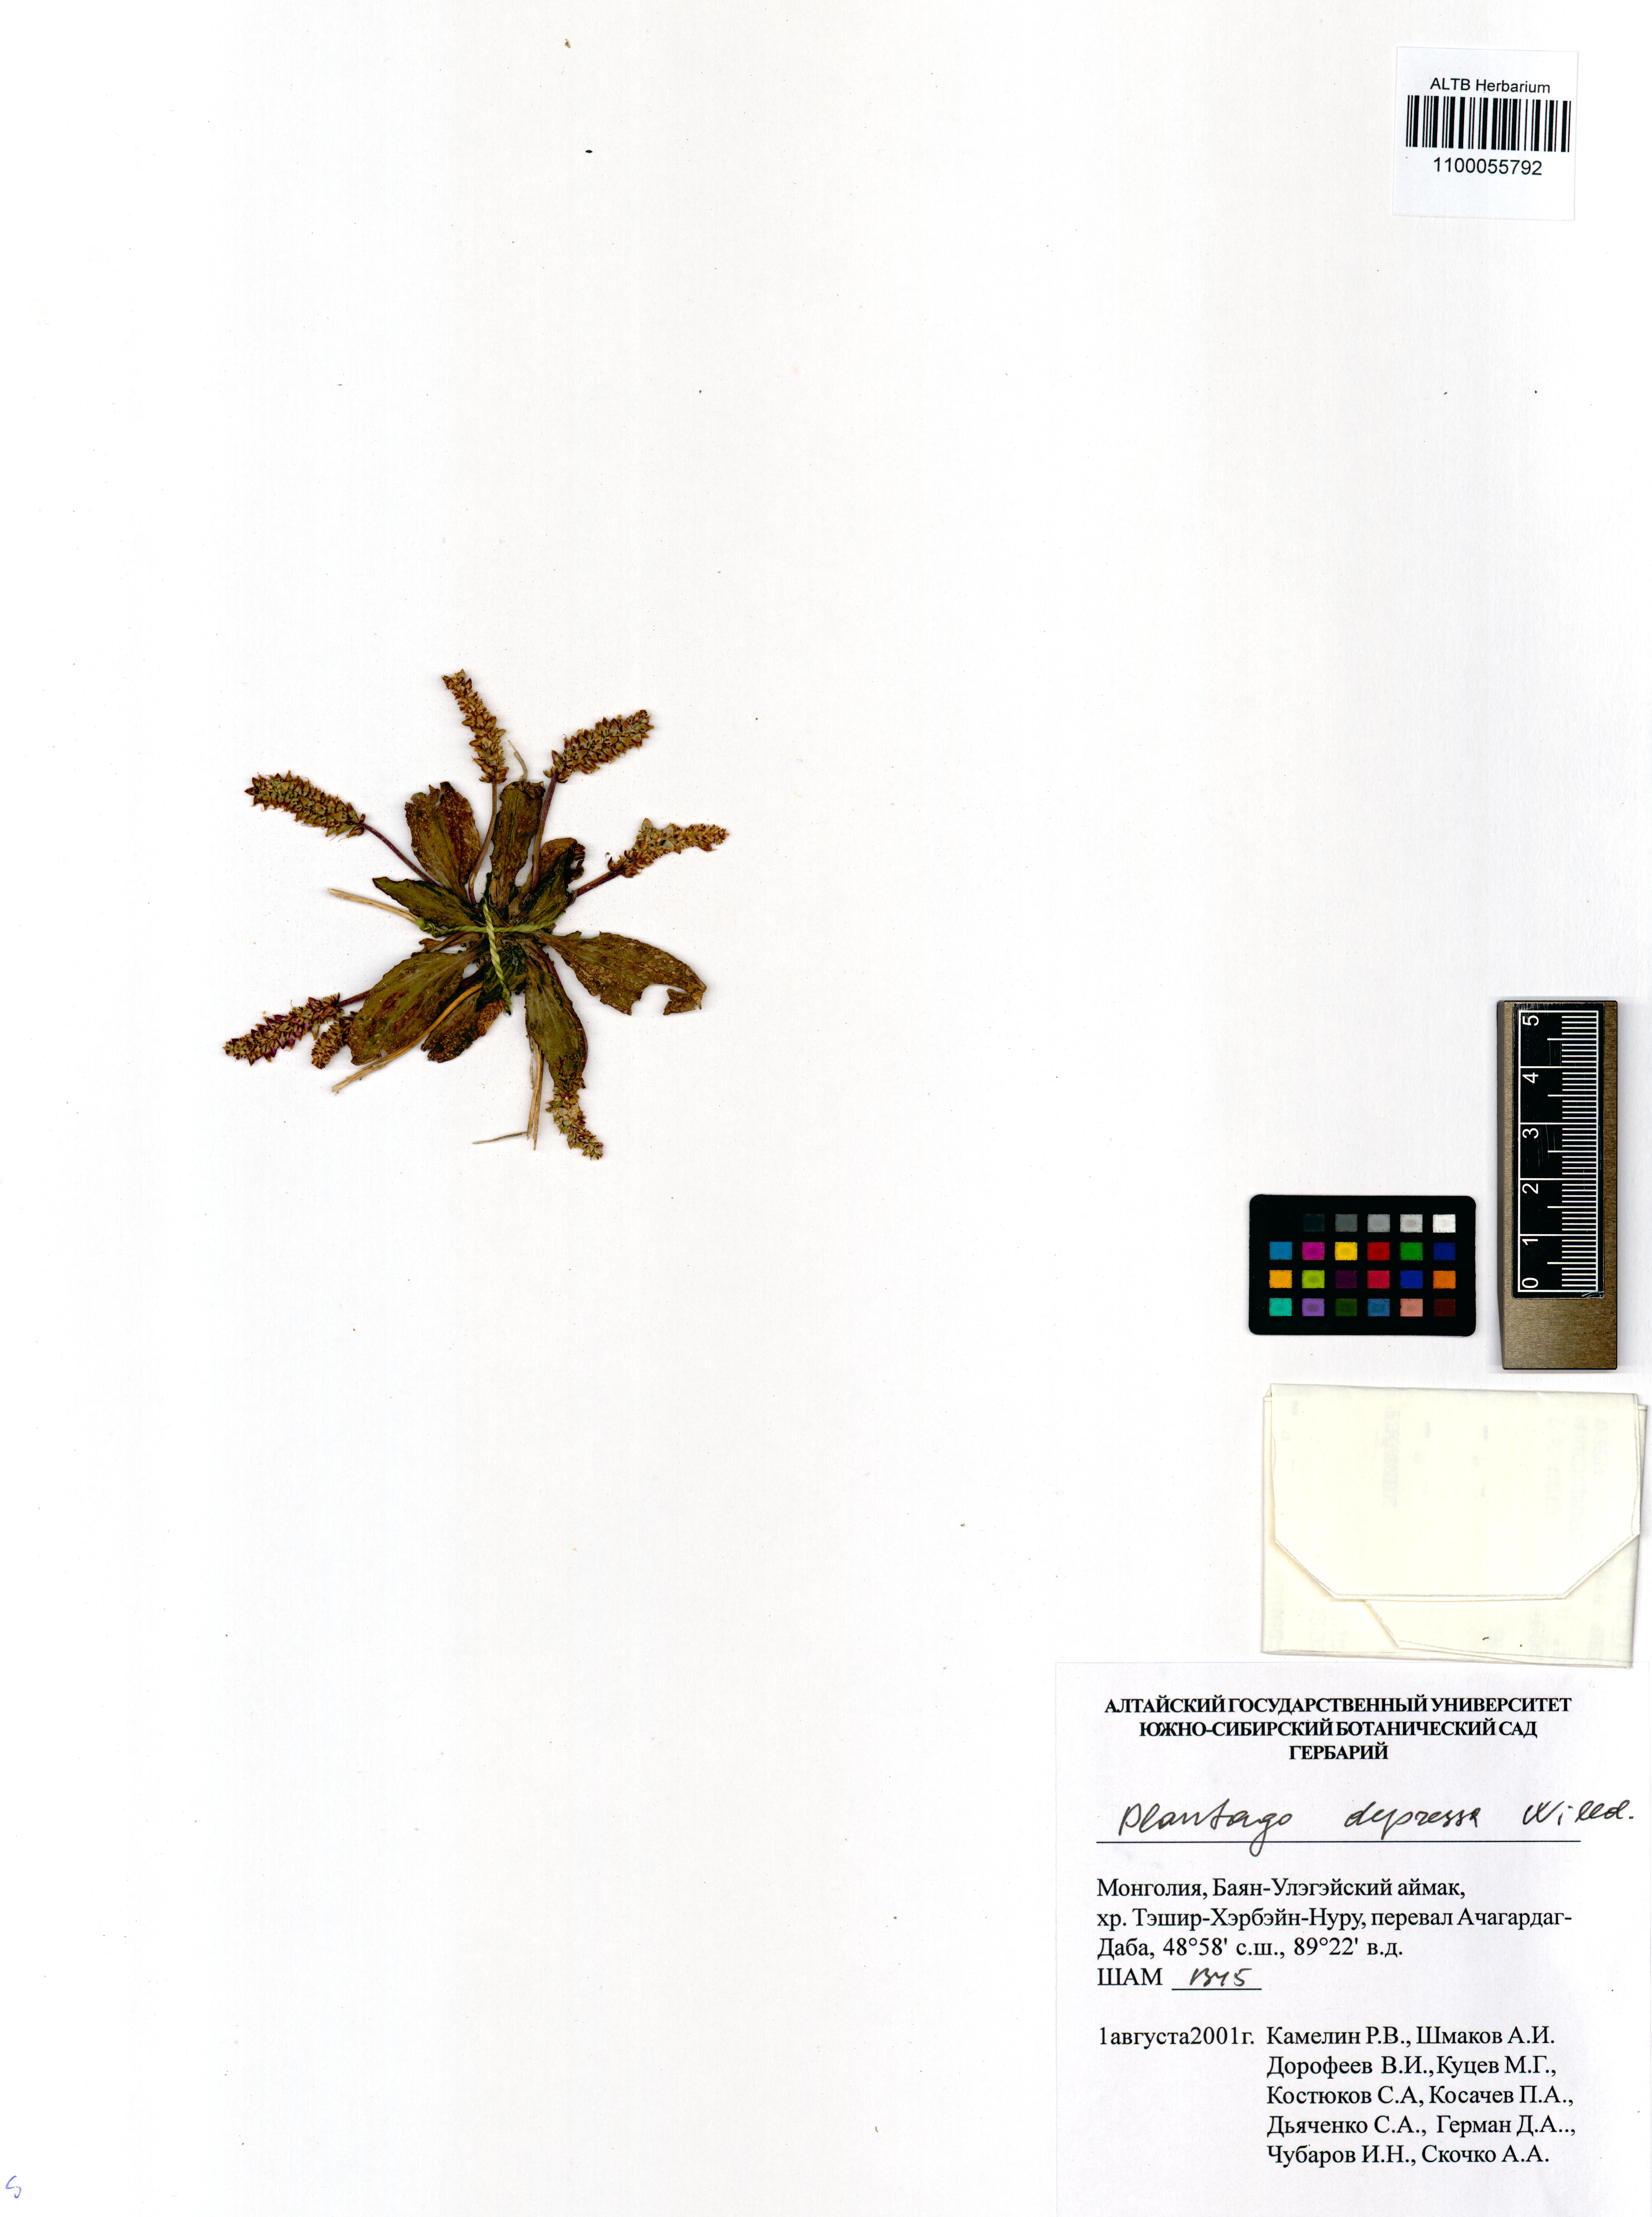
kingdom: Plantae
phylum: Tracheophyta
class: Magnoliopsida
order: Lamiales
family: Plantaginaceae
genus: Plantago
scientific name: Plantago depressa
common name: Depressed plantain
